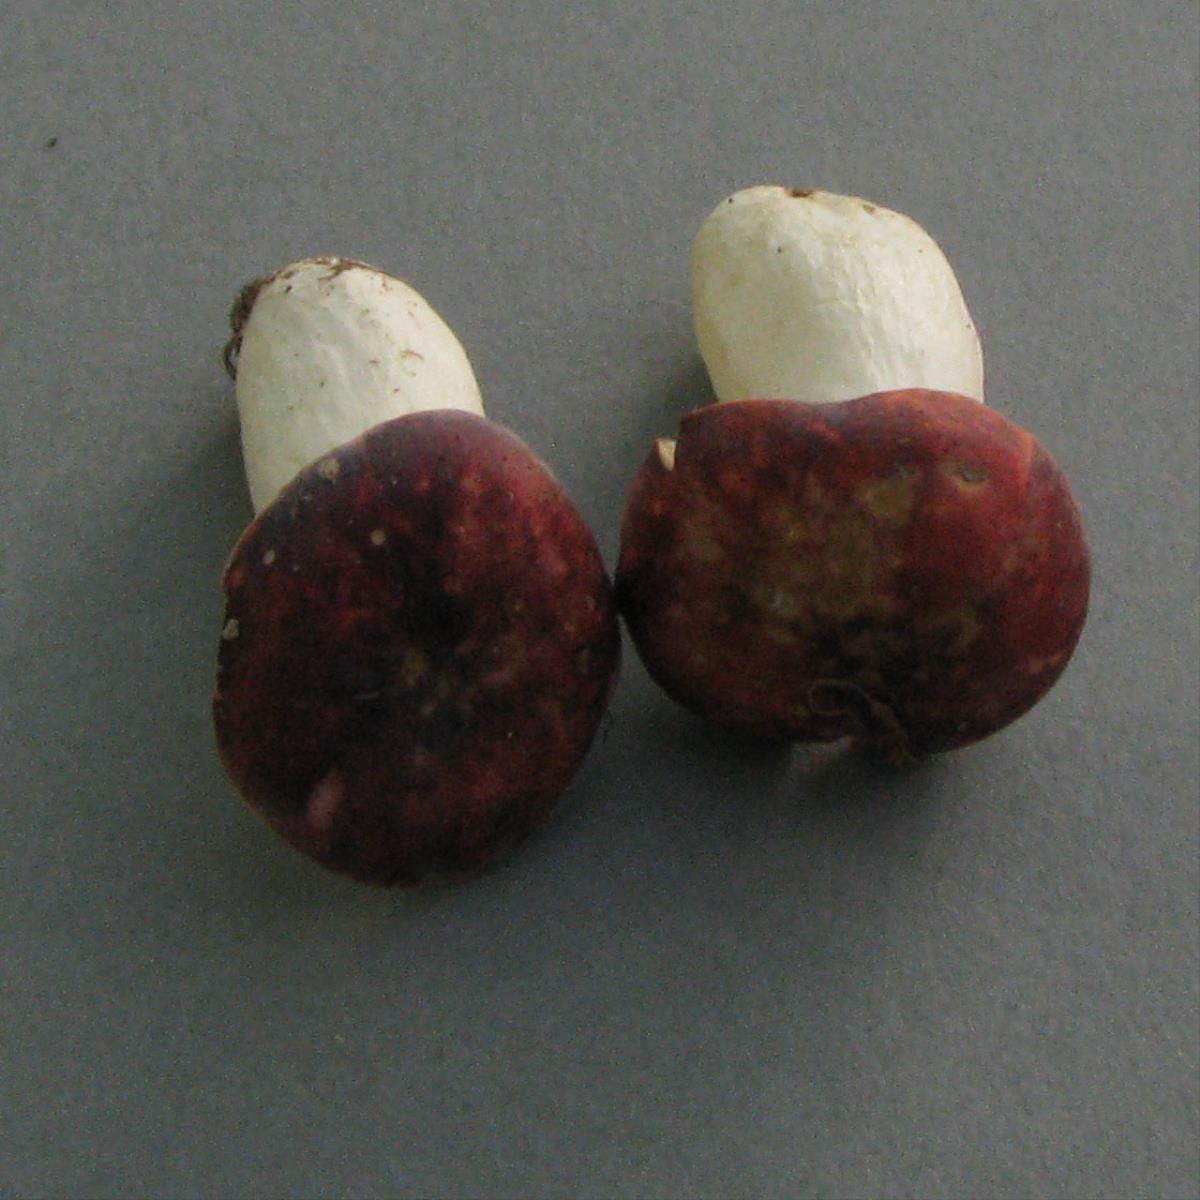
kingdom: Fungi
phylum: Basidiomycota
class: Agaricomycetes
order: Russulales
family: Russulaceae
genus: Russula
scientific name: Russula nana
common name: Alpine brittlegill
